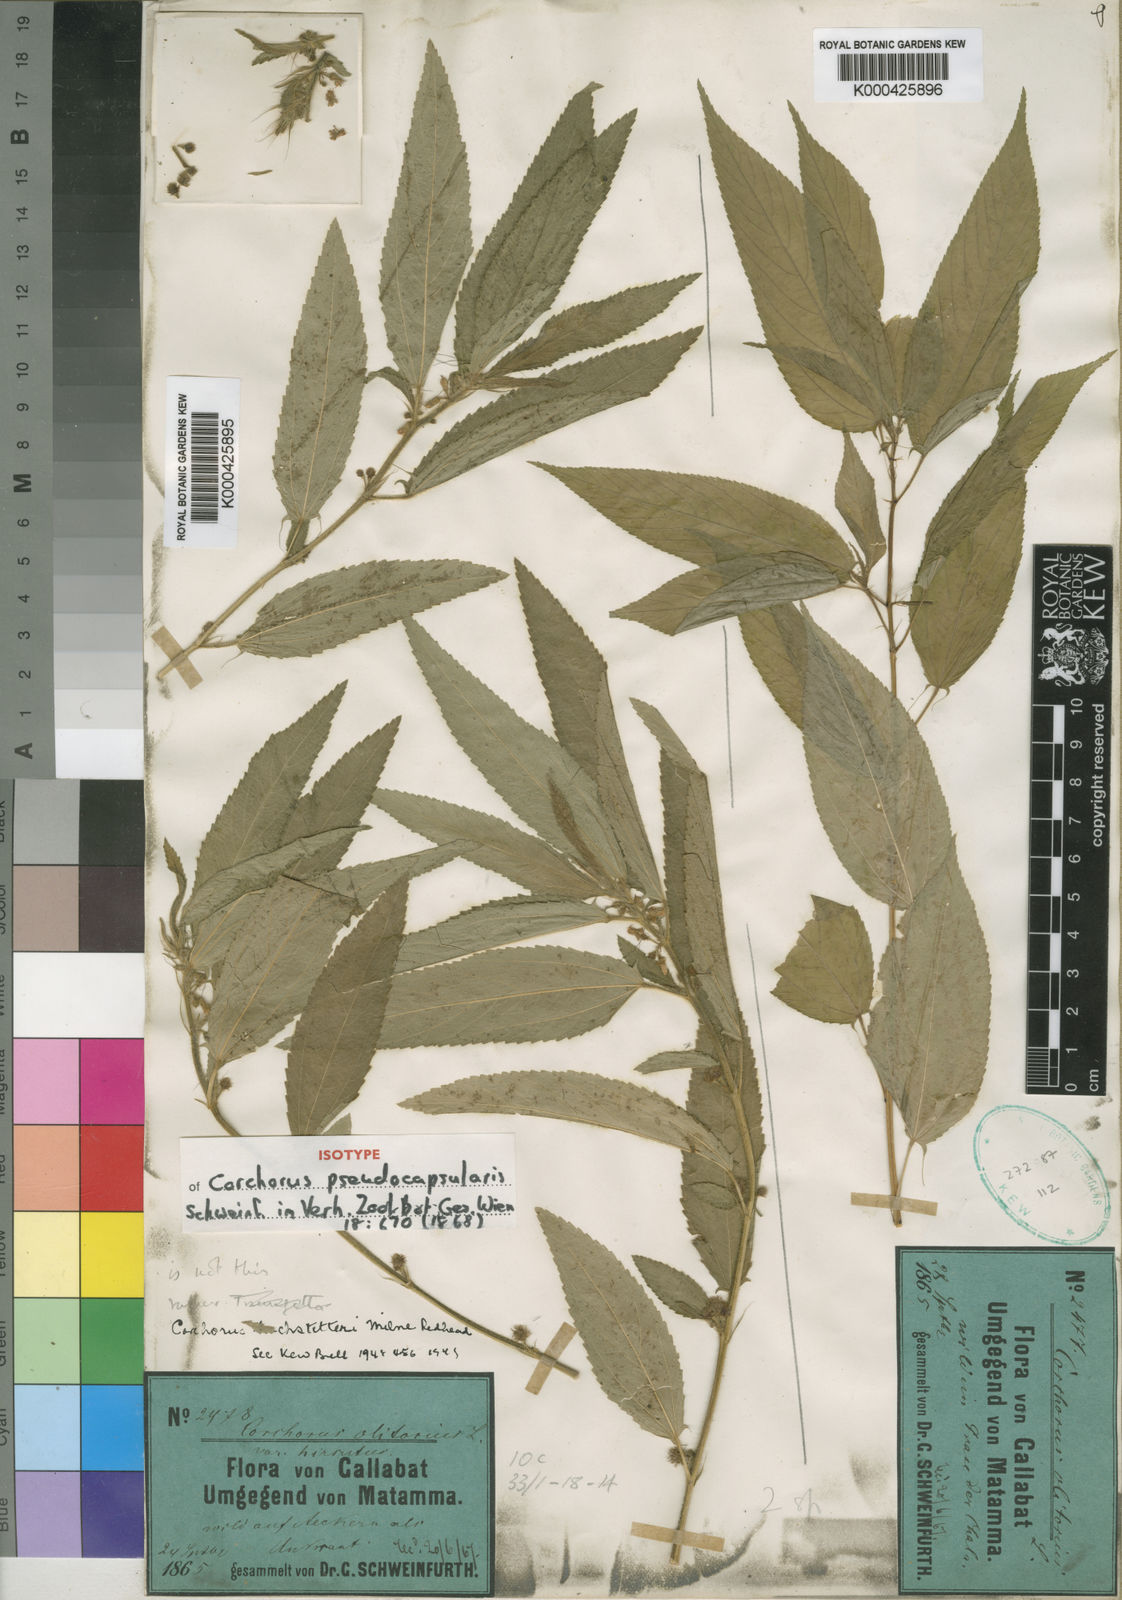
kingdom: Plantae
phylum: Tracheophyta
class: Magnoliopsida
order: Malvales
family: Malvaceae
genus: Corchorus
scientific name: Corchorus pseudocapsularis
